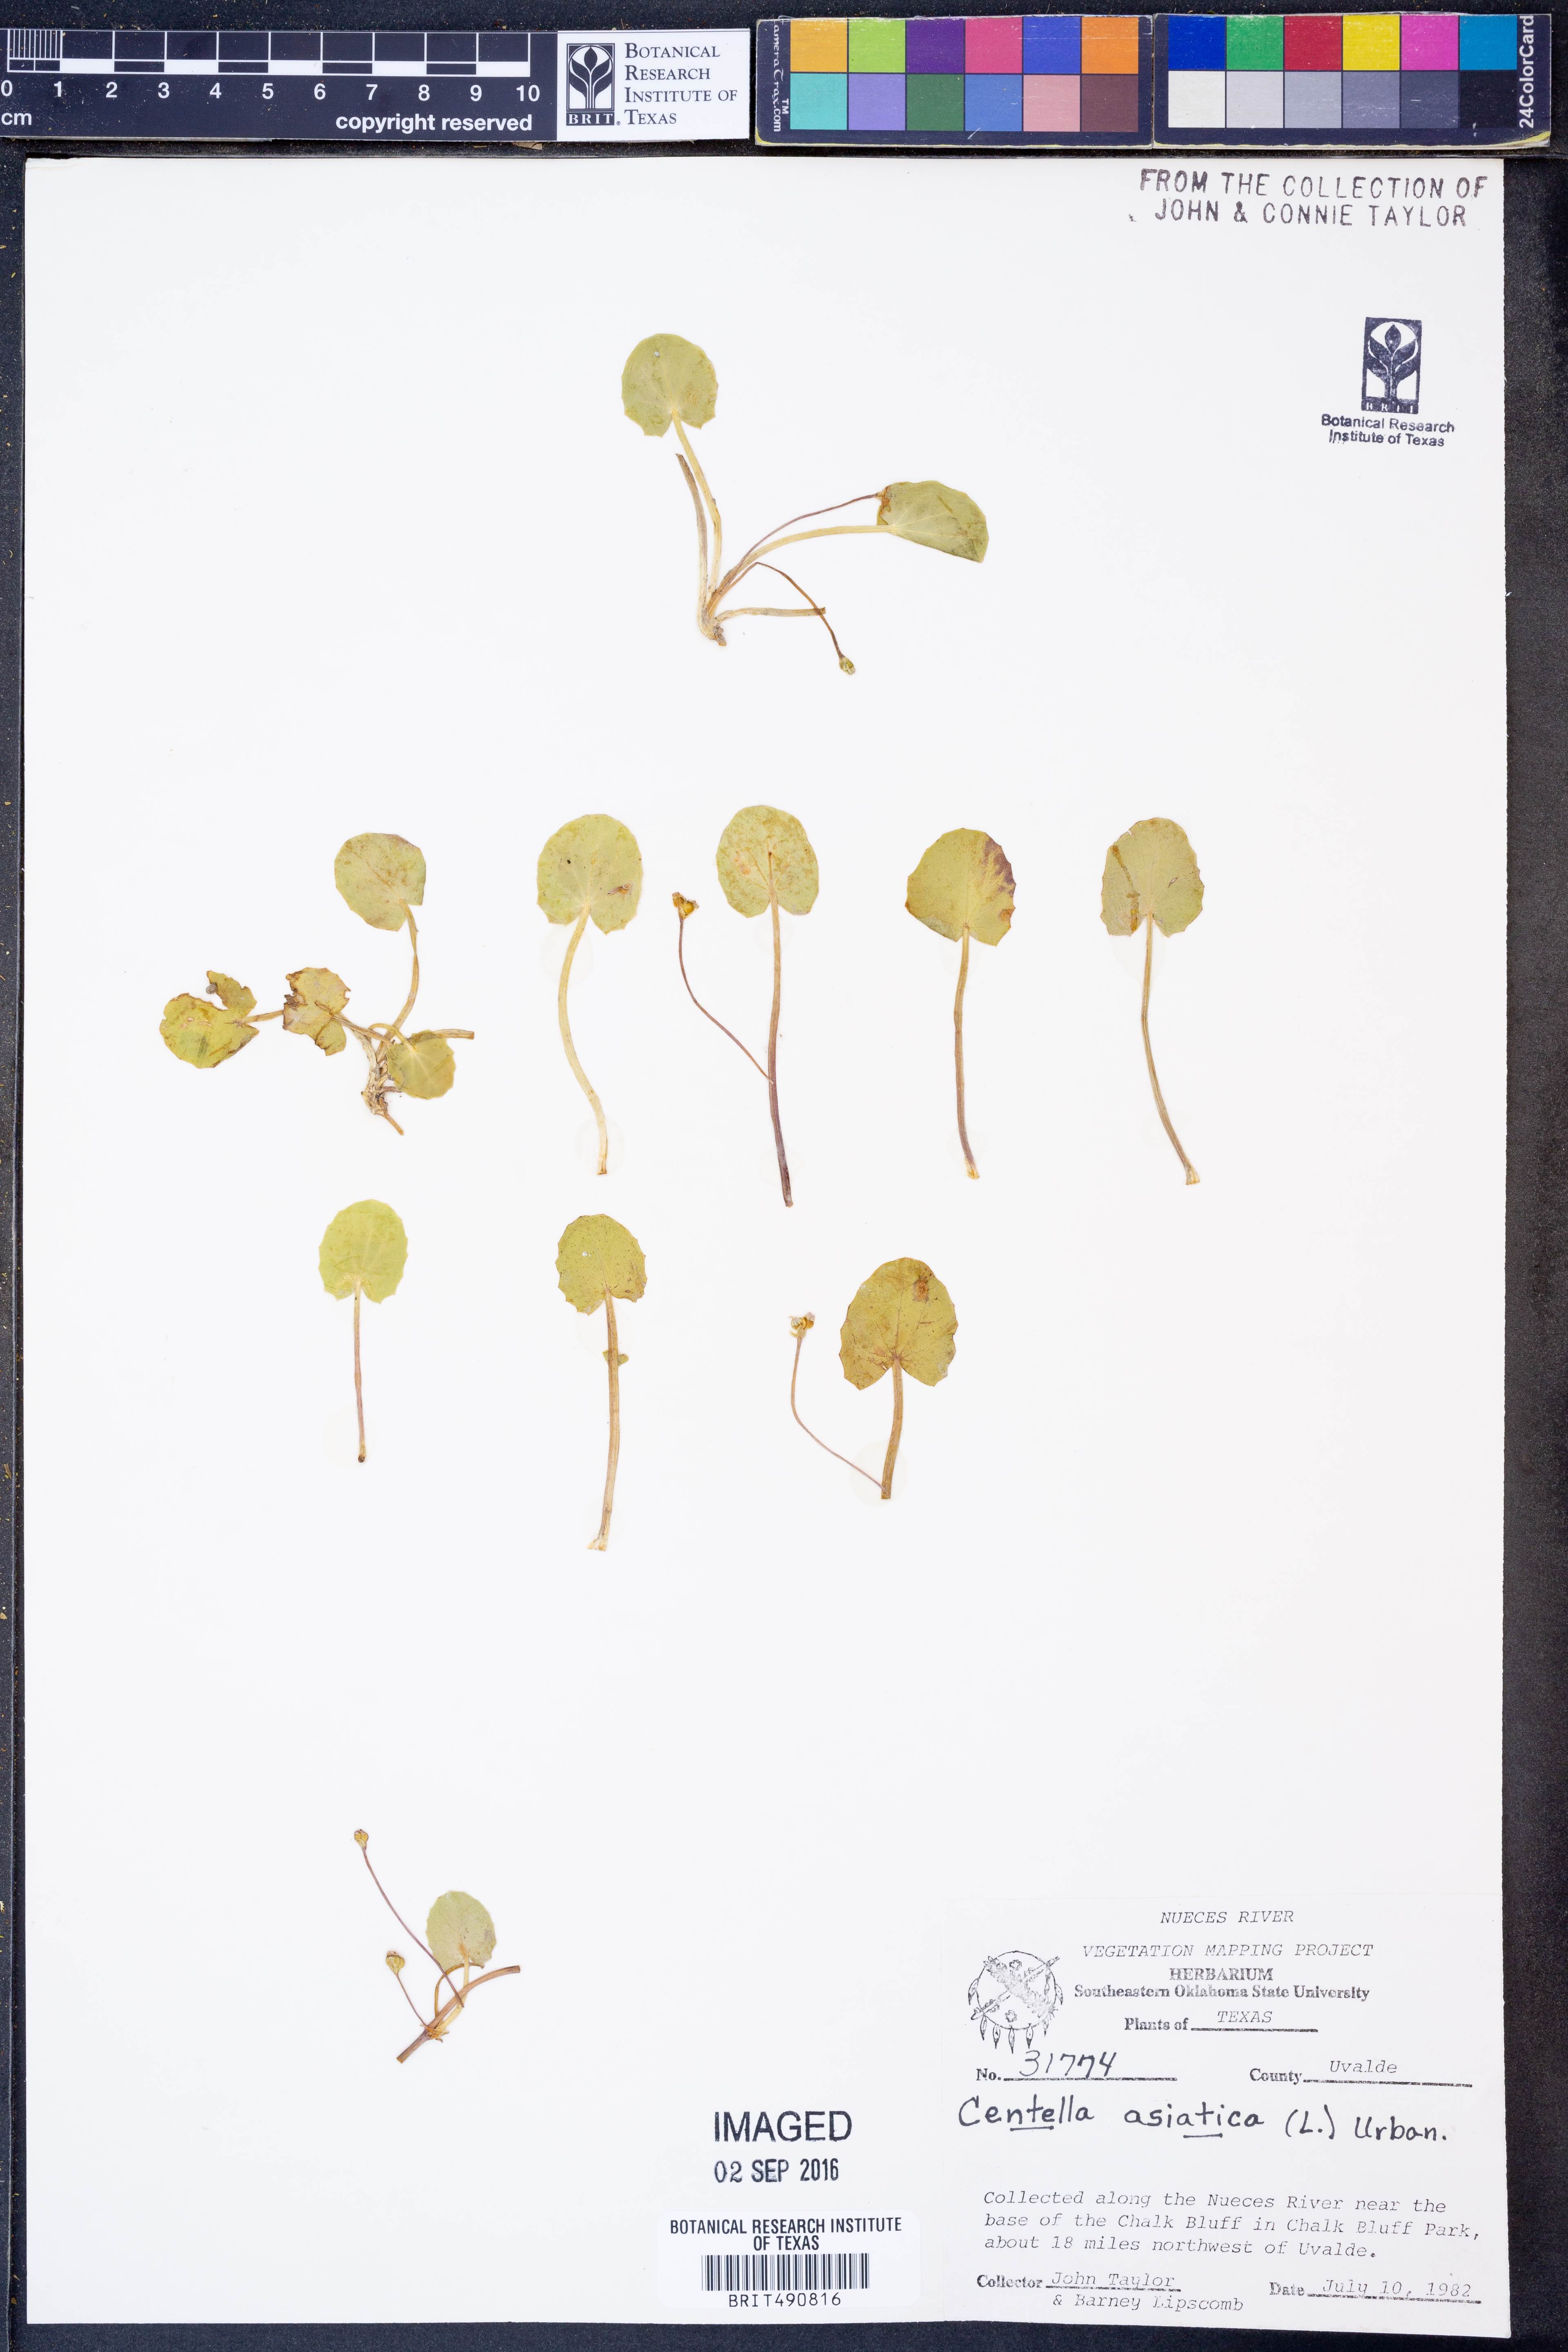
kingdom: Plantae
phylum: Tracheophyta
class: Magnoliopsida
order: Apiales
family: Apiaceae
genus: Centella
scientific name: Centella asiatica
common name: Spadeleaf
